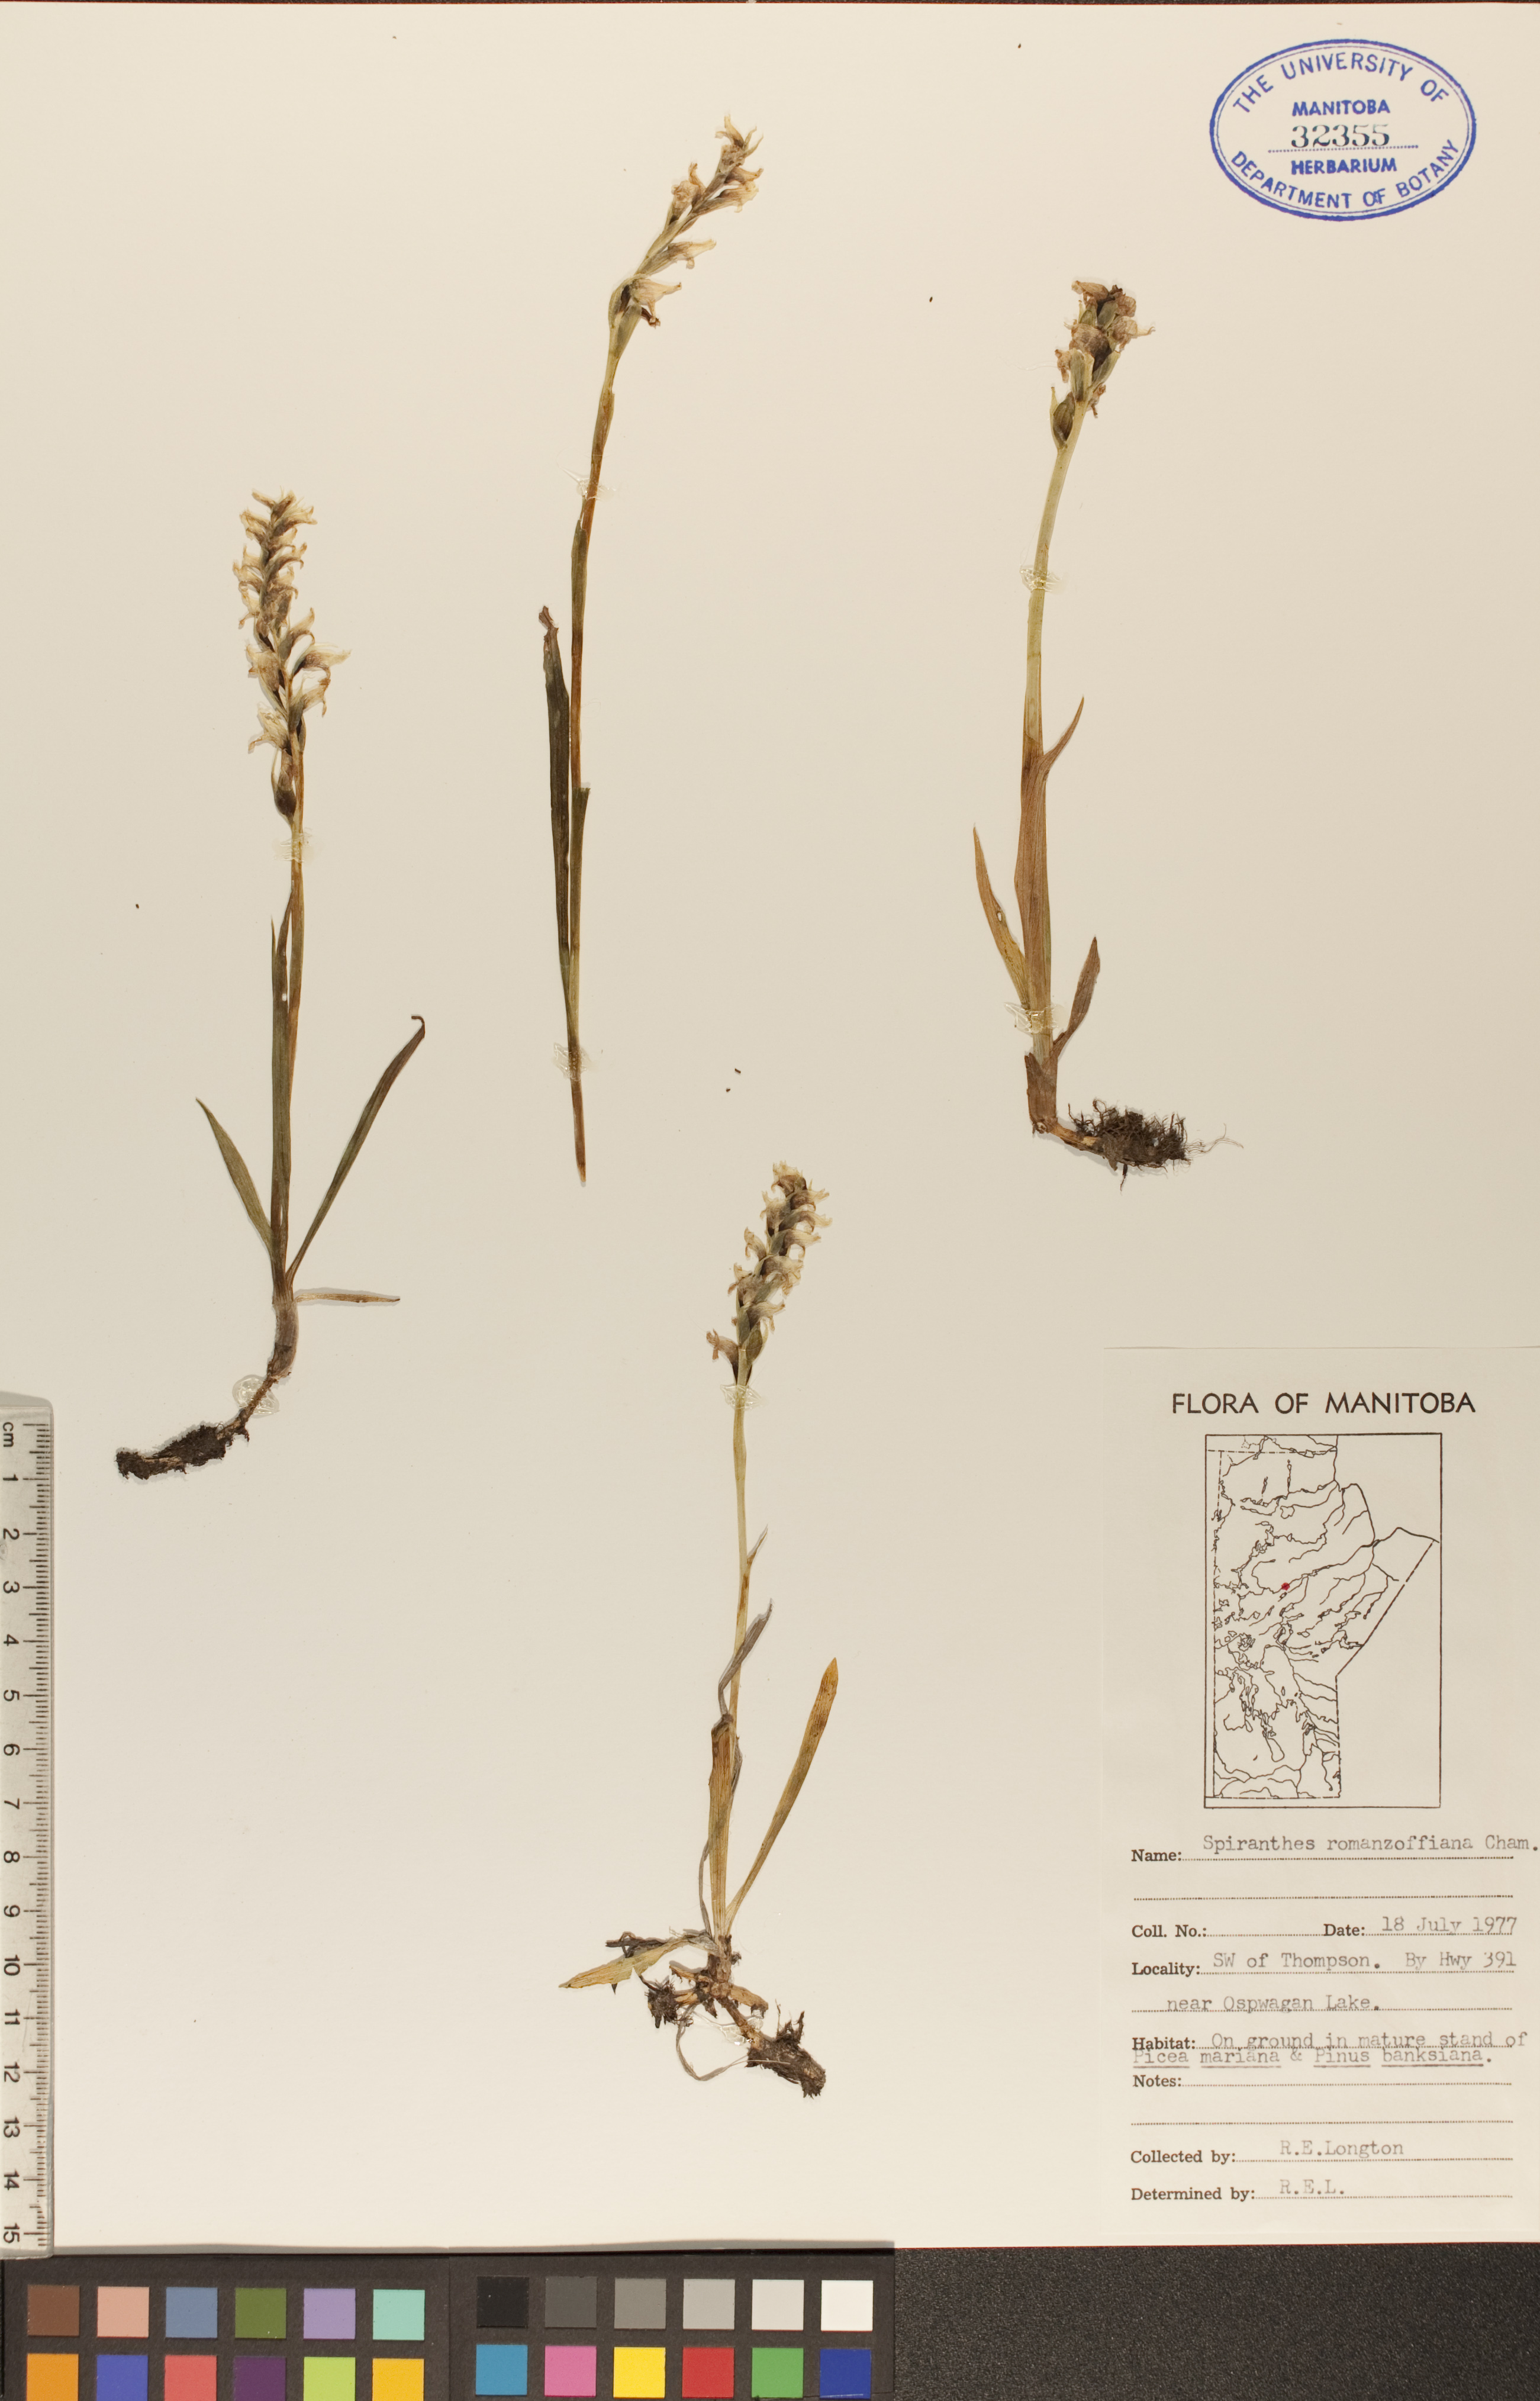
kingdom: Plantae
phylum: Tracheophyta
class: Liliopsida
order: Asparagales
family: Orchidaceae
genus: Spiranthes
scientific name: Spiranthes romanzoffiana
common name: Irish lady's-tresses
